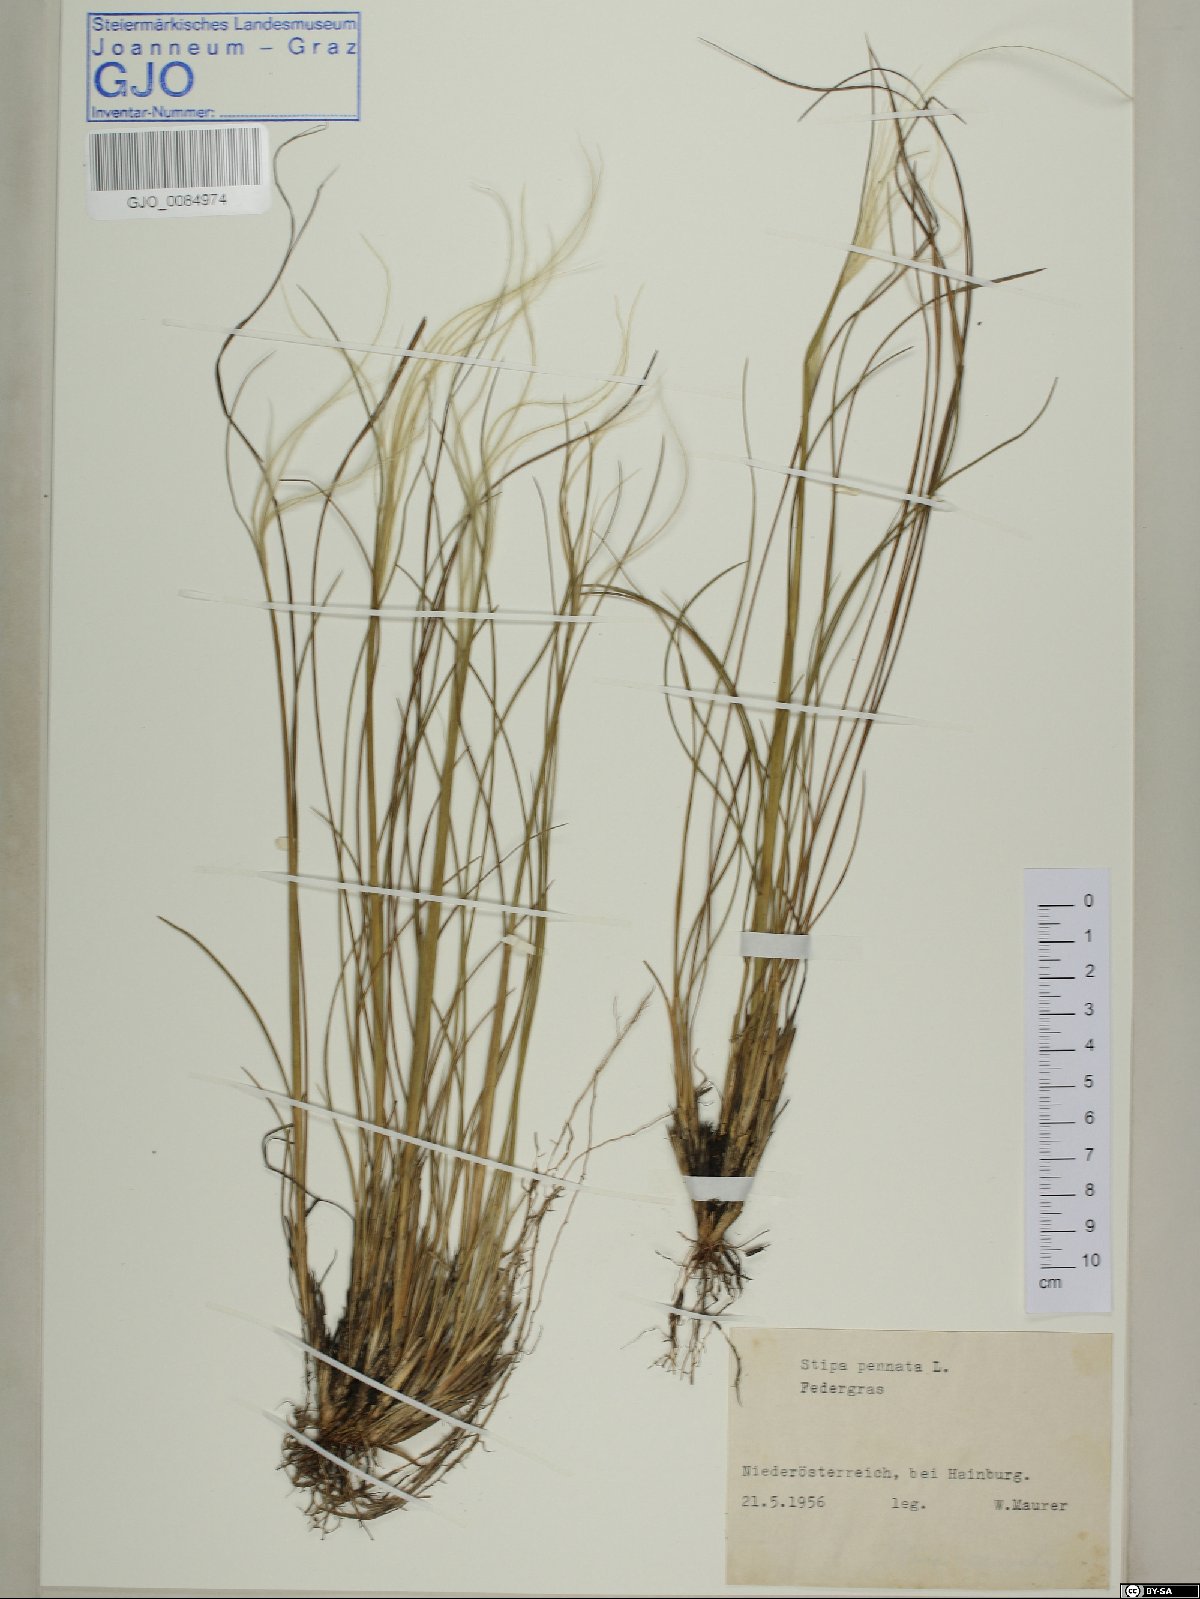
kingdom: Plantae
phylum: Tracheophyta
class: Liliopsida
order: Poales
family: Poaceae
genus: Stipa
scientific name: Stipa pennata
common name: European feather grass
